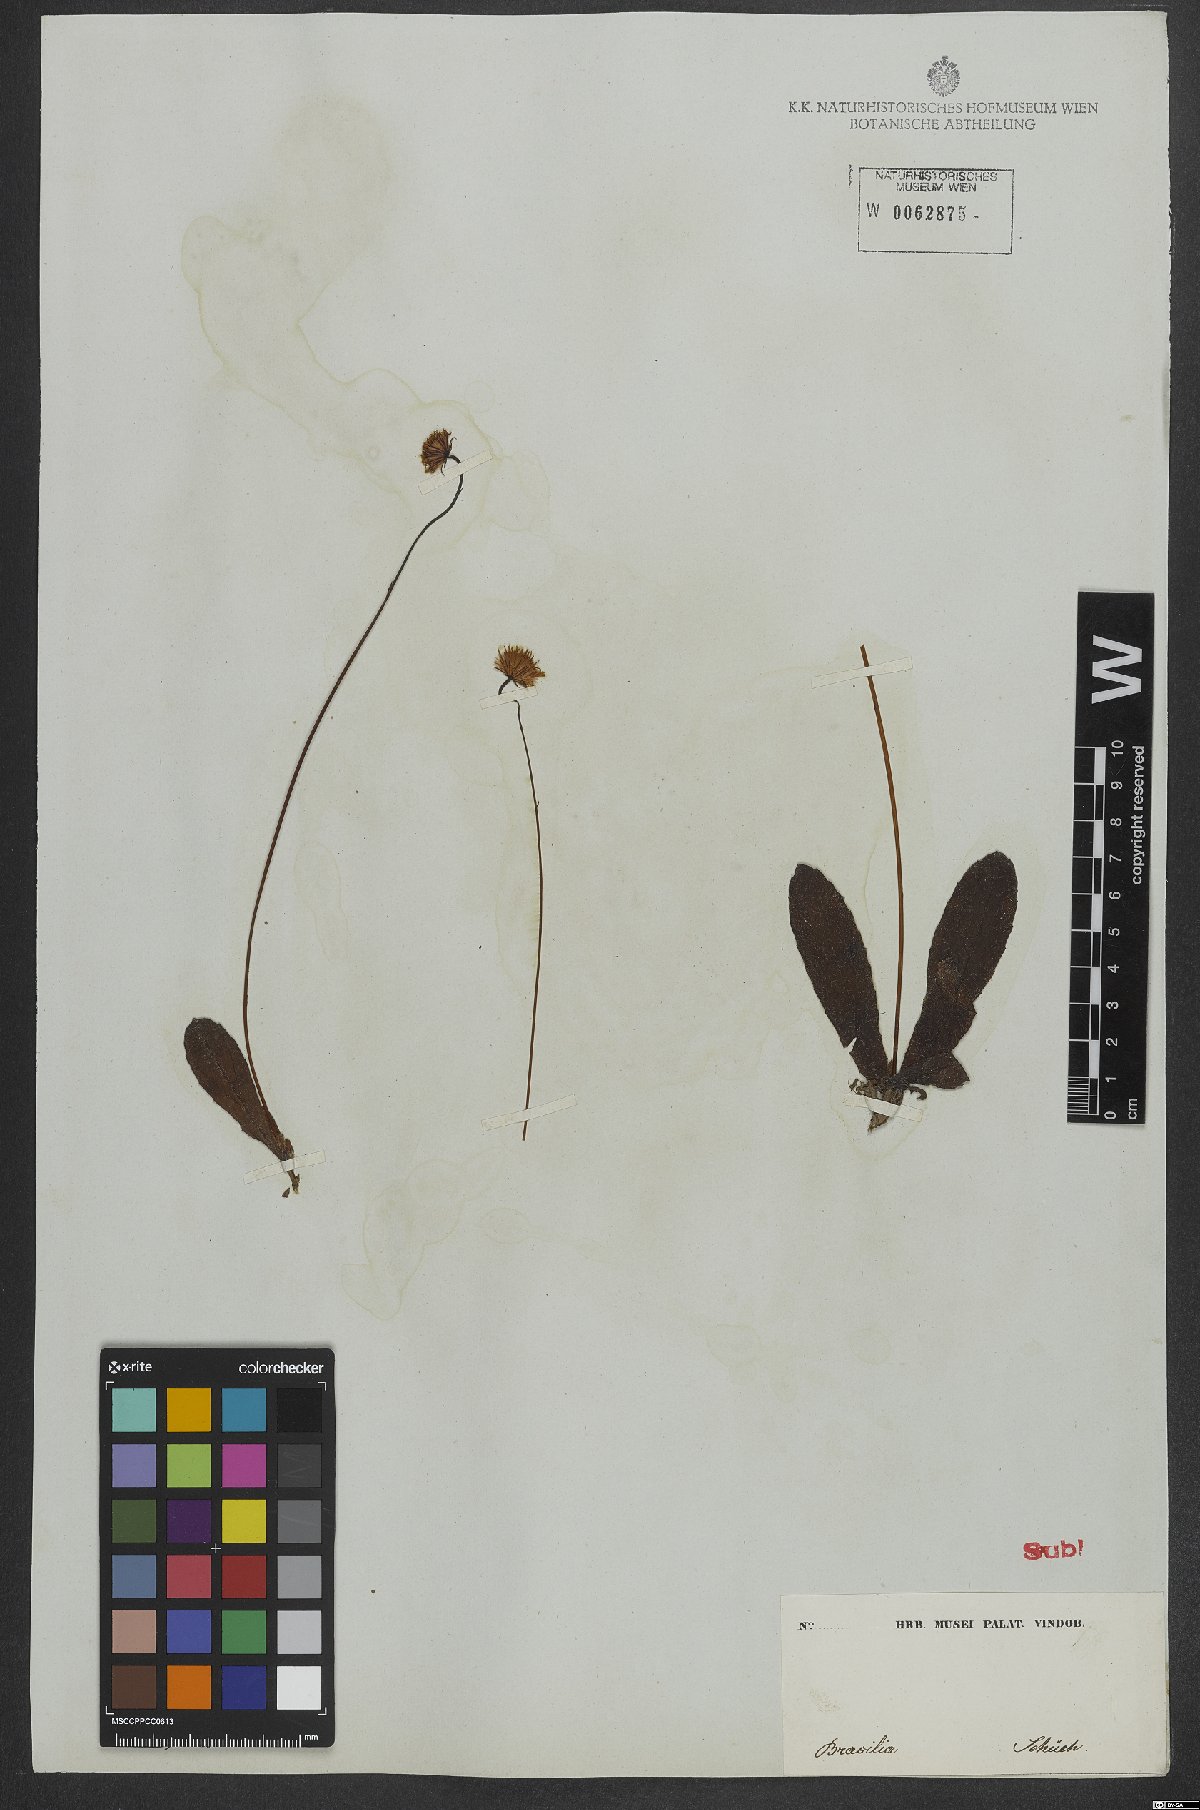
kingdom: Plantae
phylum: Tracheophyta
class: Magnoliopsida
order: Asterales
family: Asteraceae
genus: Chaptalia
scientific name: Chaptalia
